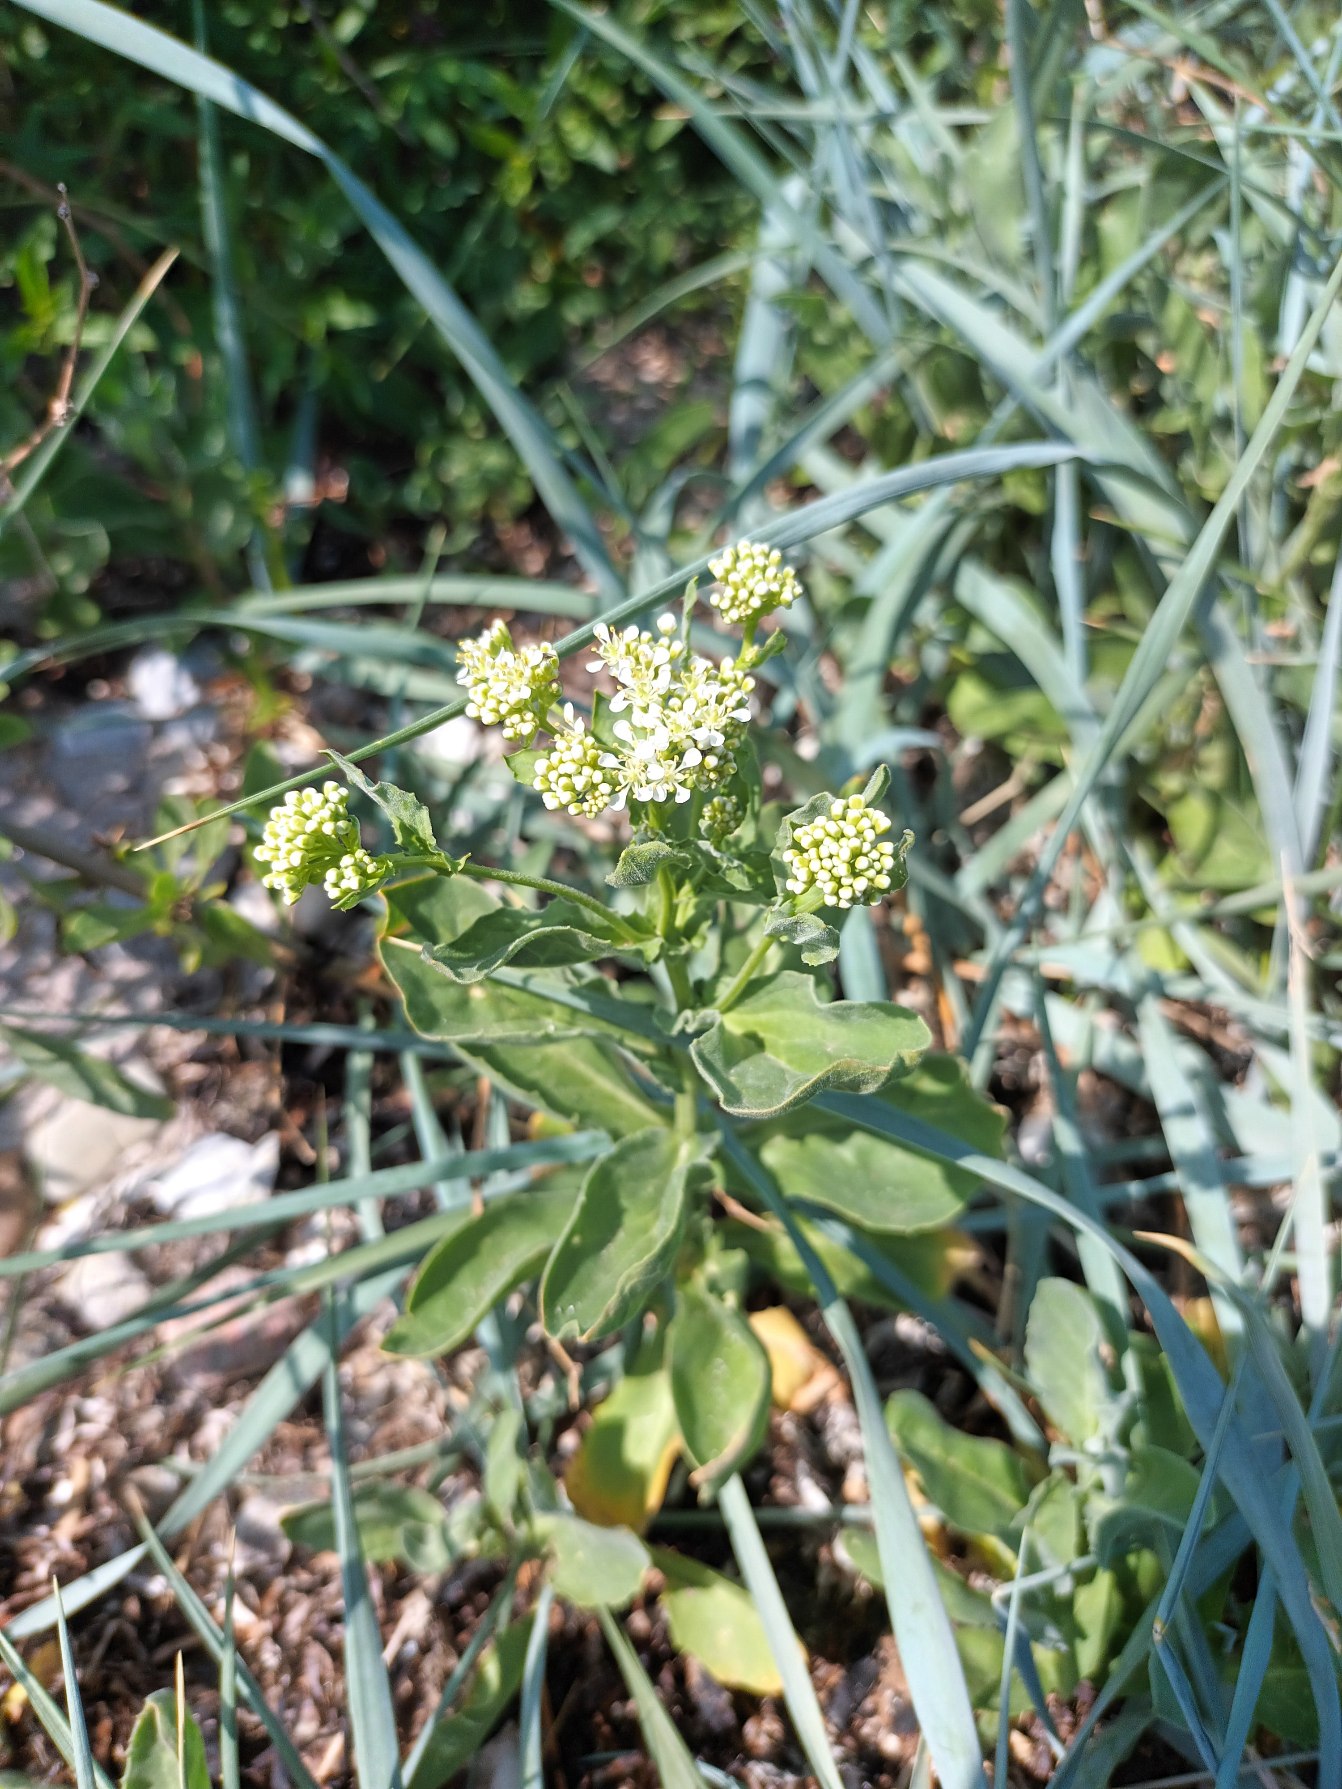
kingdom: Plantae
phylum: Tracheophyta
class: Magnoliopsida
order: Brassicales
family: Brassicaceae
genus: Lepidium
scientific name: Lepidium draba
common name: Hjerte-karse
